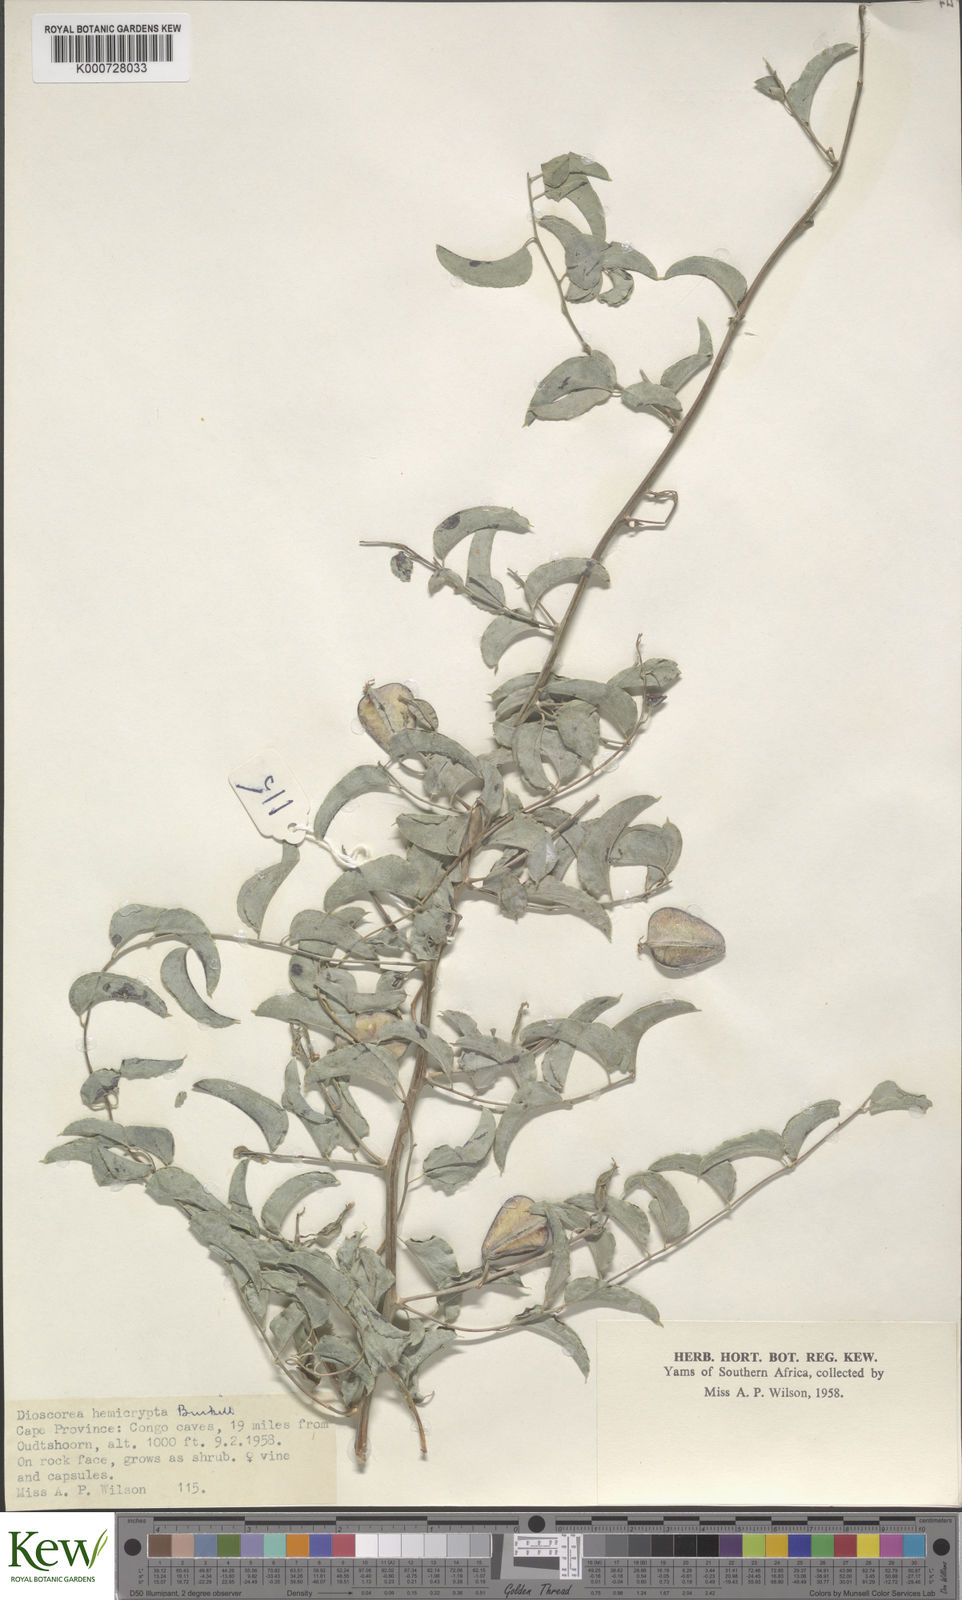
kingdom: Plantae
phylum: Tracheophyta
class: Liliopsida
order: Dioscoreales
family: Dioscoreaceae
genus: Dioscorea
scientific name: Dioscorea hemicrypta
